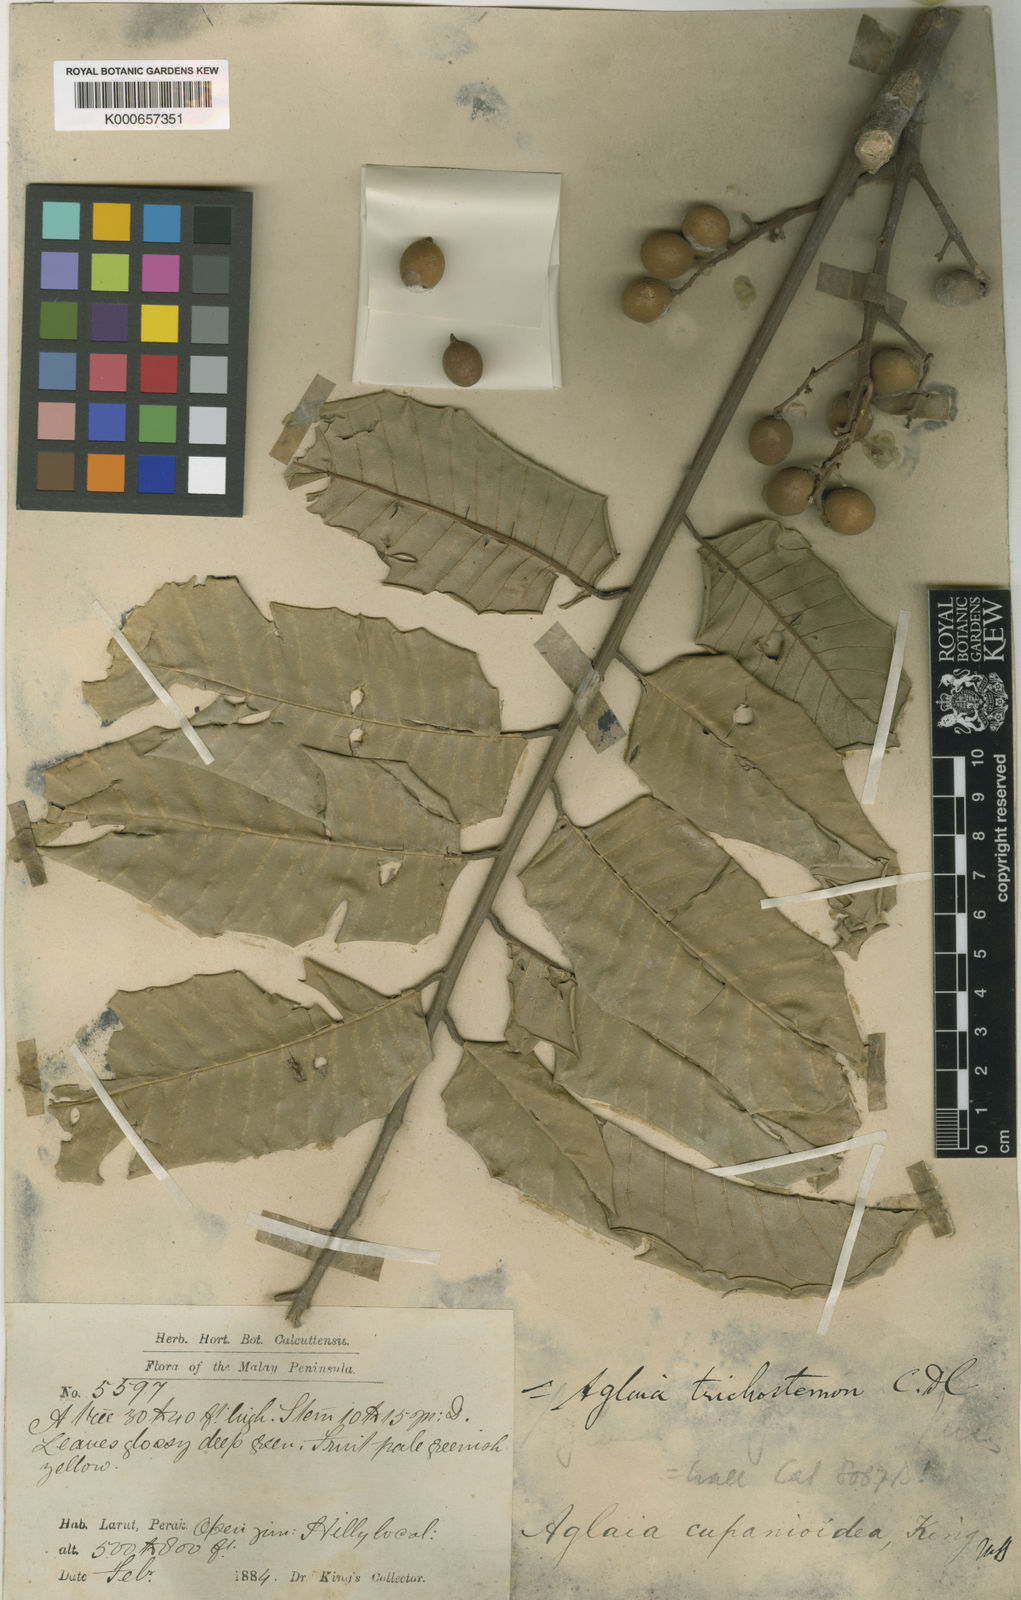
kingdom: Plantae
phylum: Tracheophyta
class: Magnoliopsida
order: Sapindales
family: Meliaceae
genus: Aglaia
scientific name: Aglaia rufinervis
